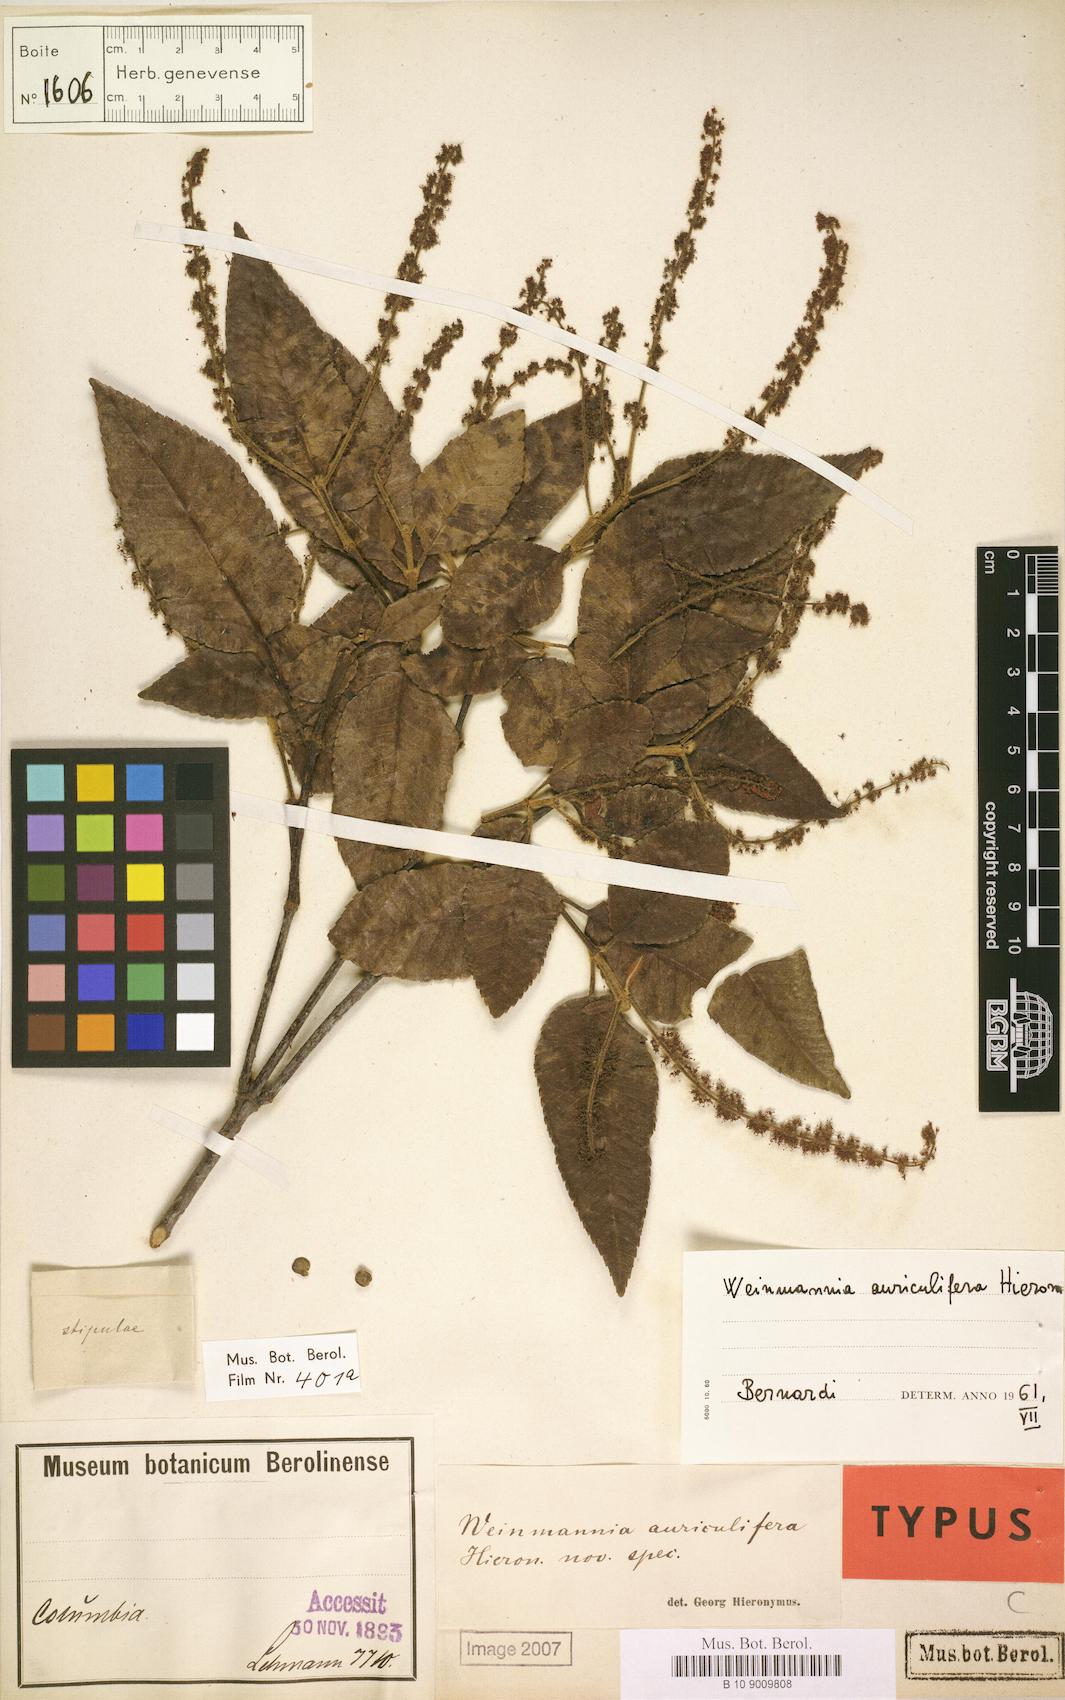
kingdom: Plantae
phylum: Tracheophyta
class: Magnoliopsida
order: Oxalidales
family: Cunoniaceae
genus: Weinmannia
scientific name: Weinmannia cordata
